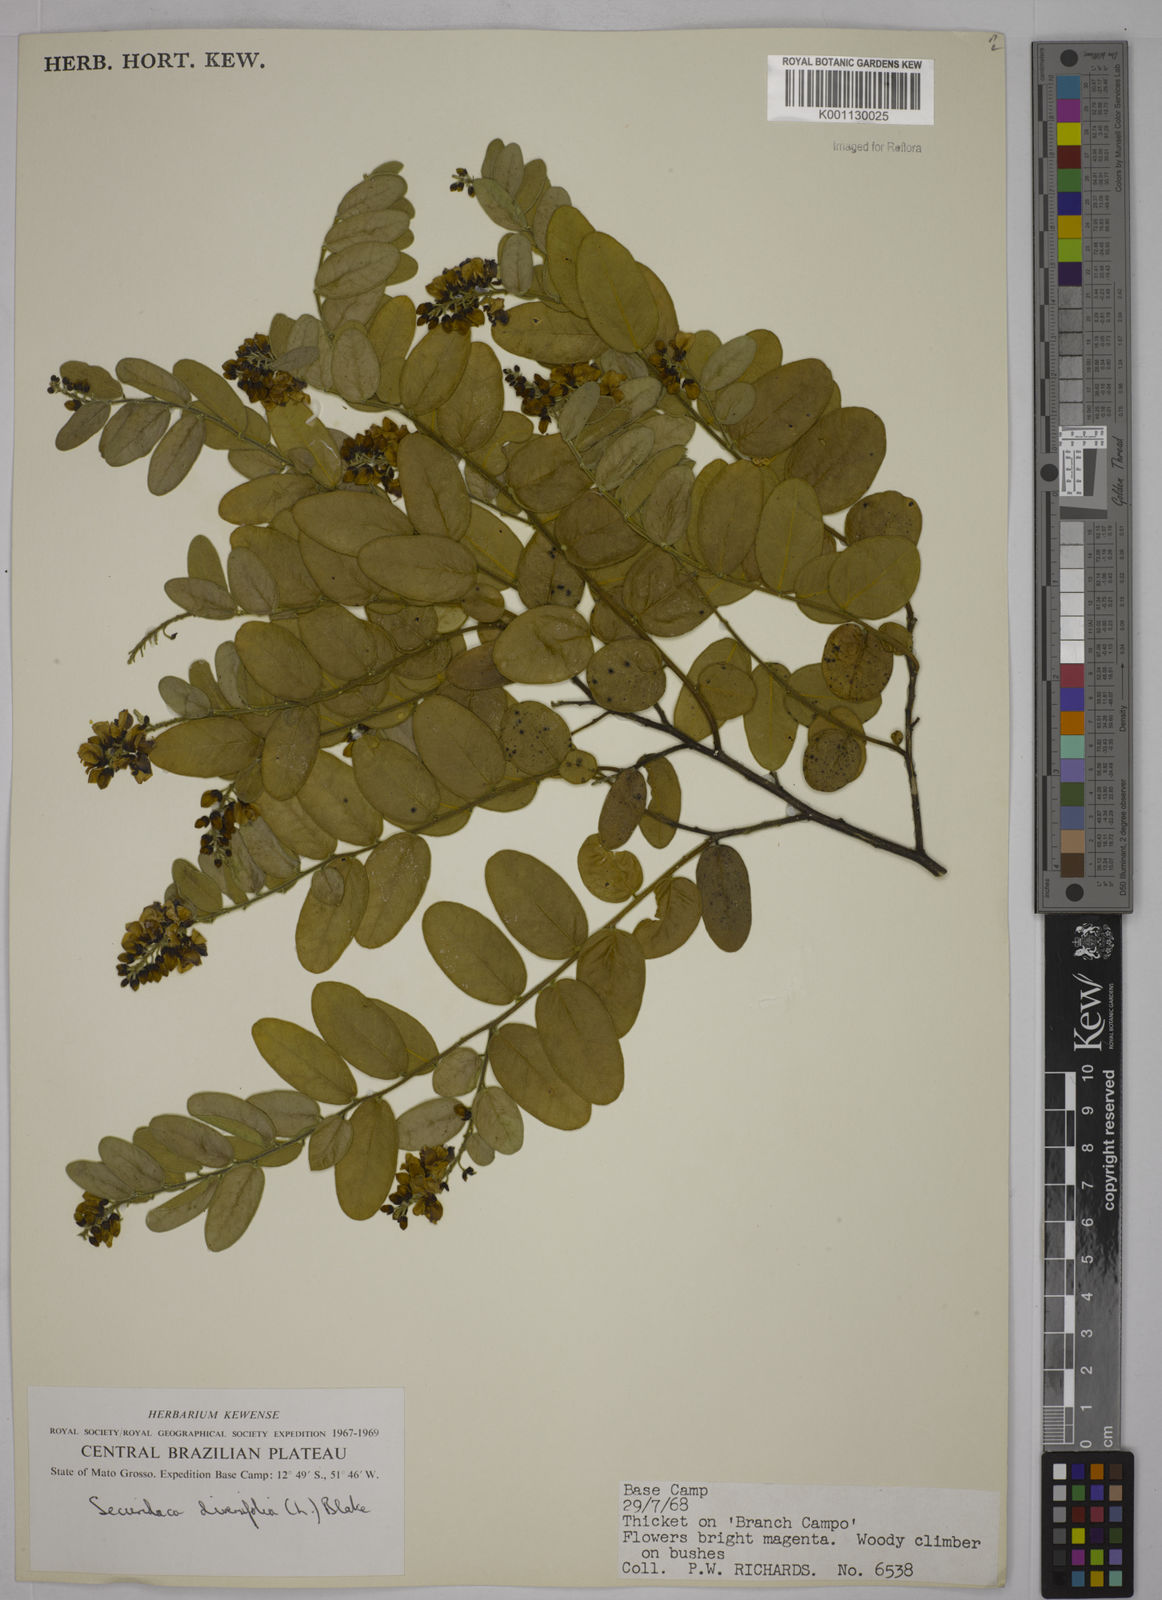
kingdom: Plantae
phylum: Tracheophyta
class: Magnoliopsida
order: Fabales
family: Polygalaceae
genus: Securidaca
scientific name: Securidaca diversifolia
